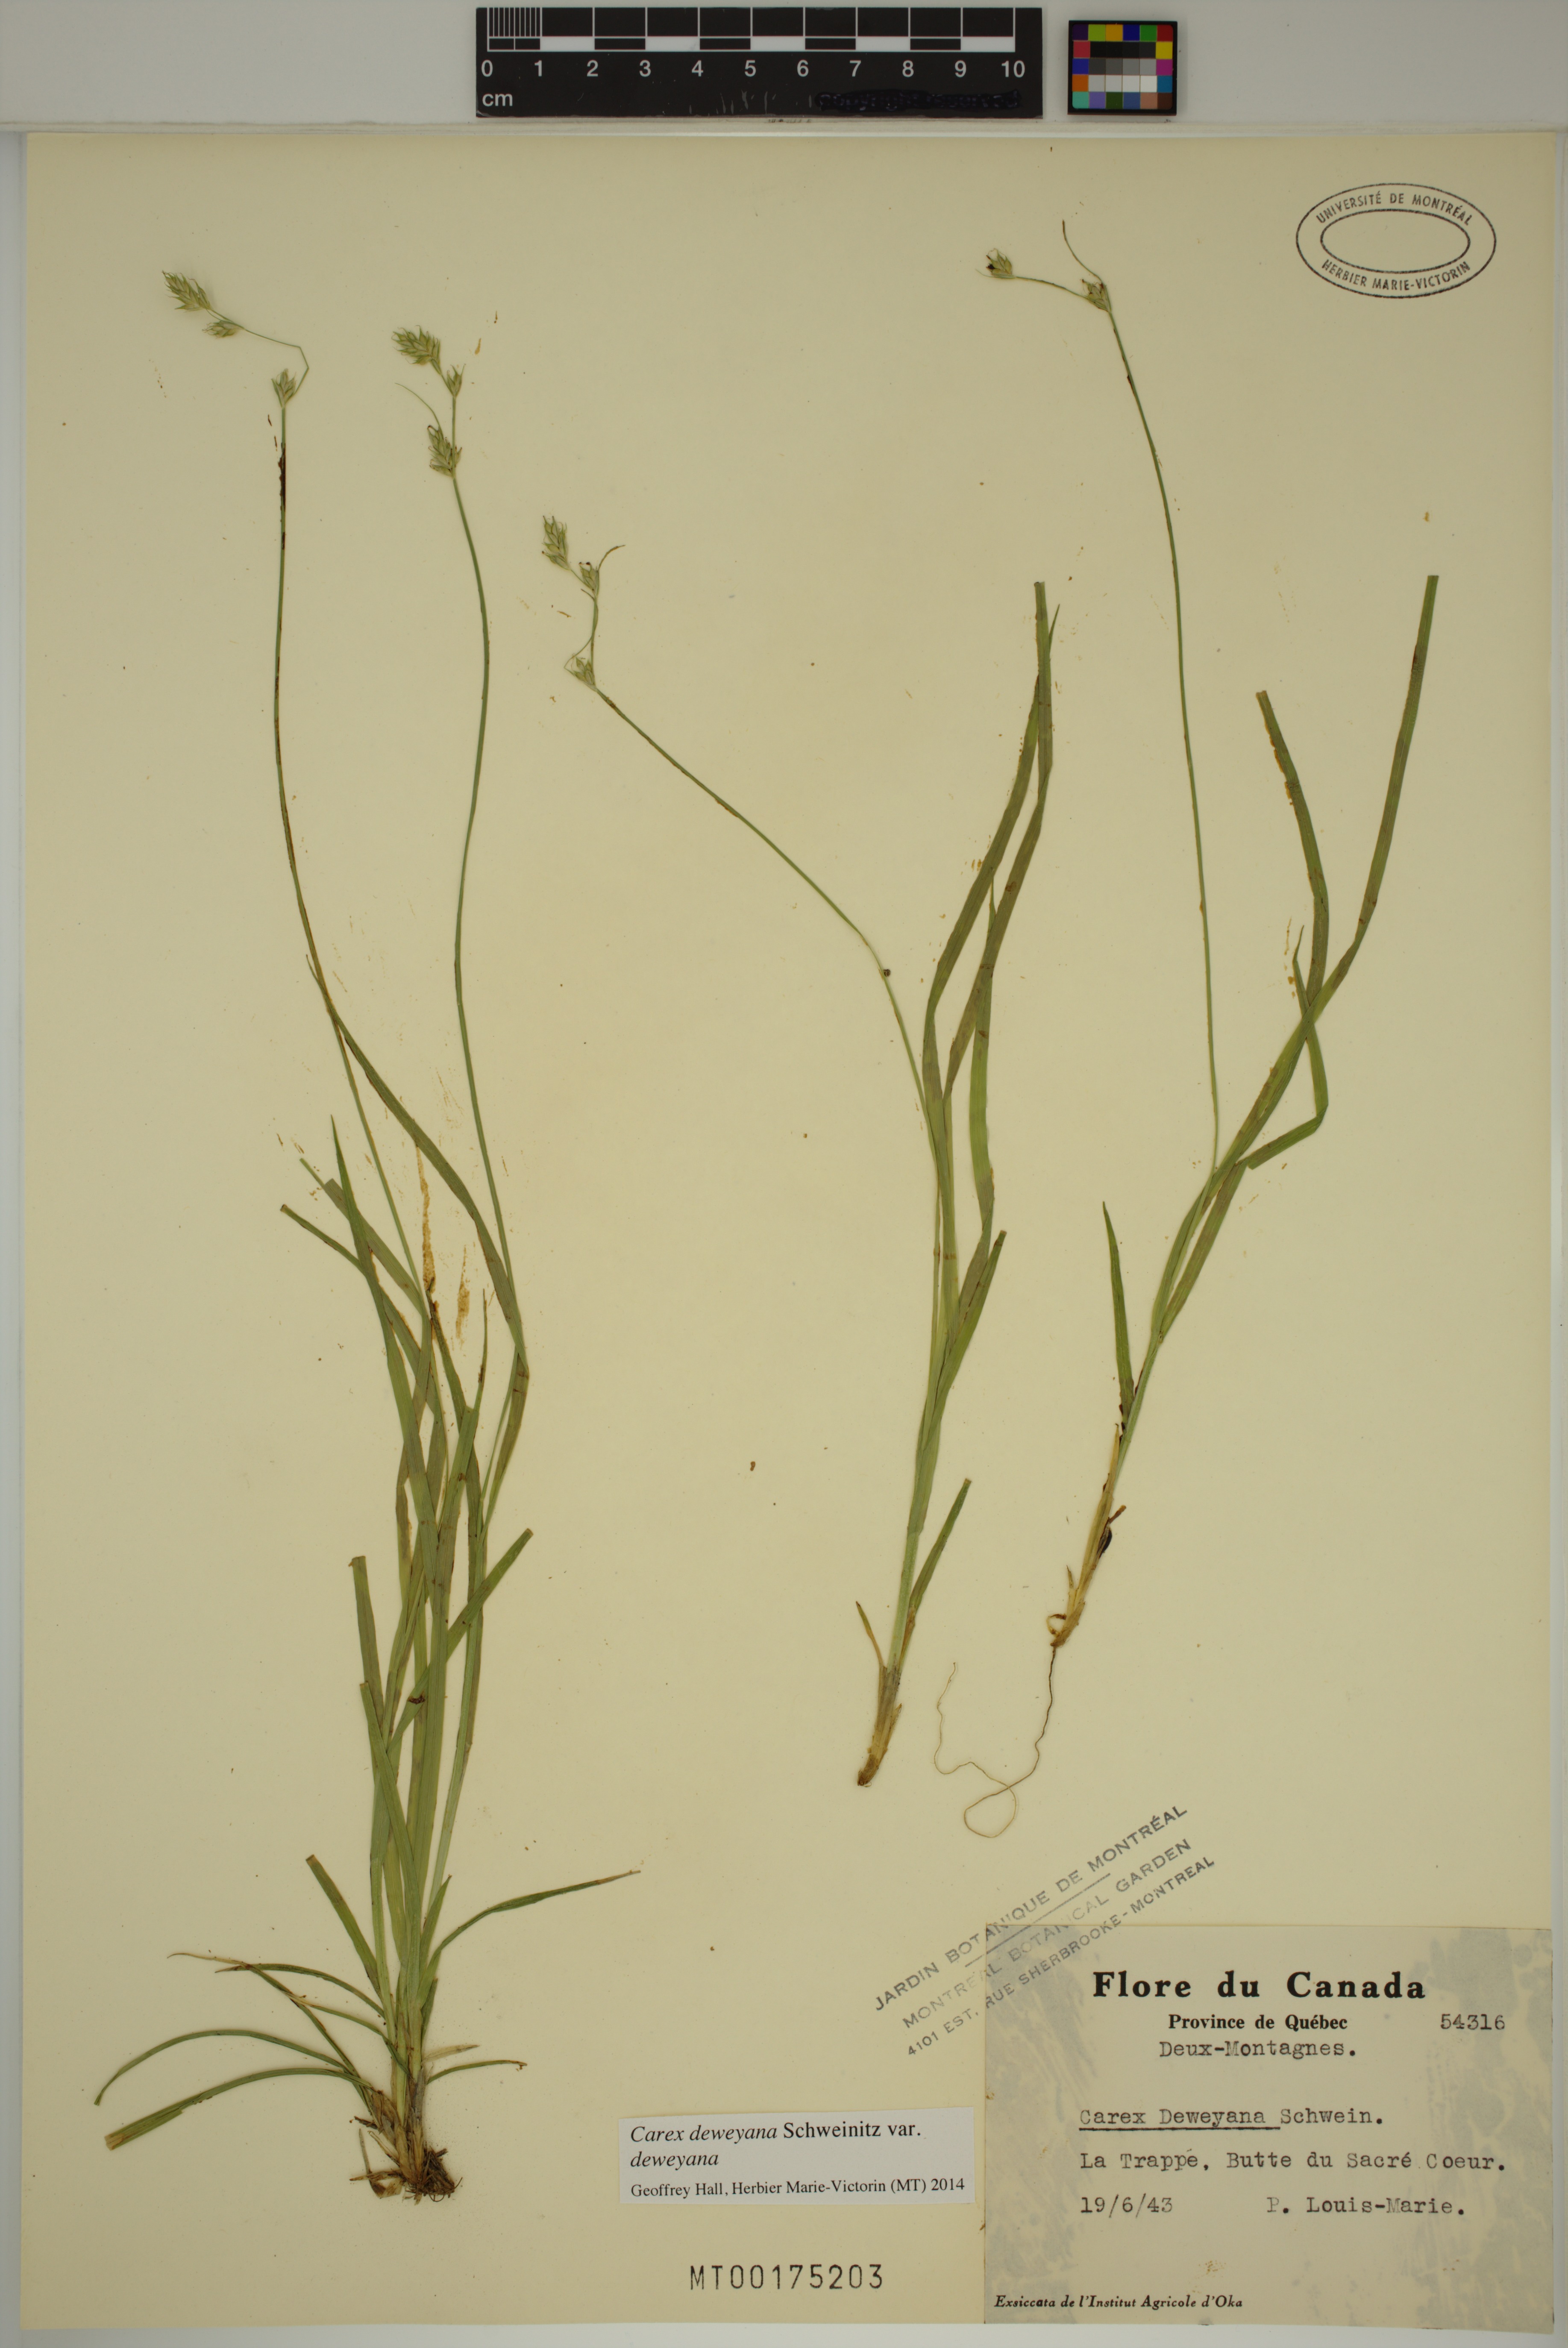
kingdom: Plantae
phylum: Tracheophyta
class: Liliopsida
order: Poales
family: Cyperaceae
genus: Carex
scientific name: Carex deweyana
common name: Dewey's sedge
